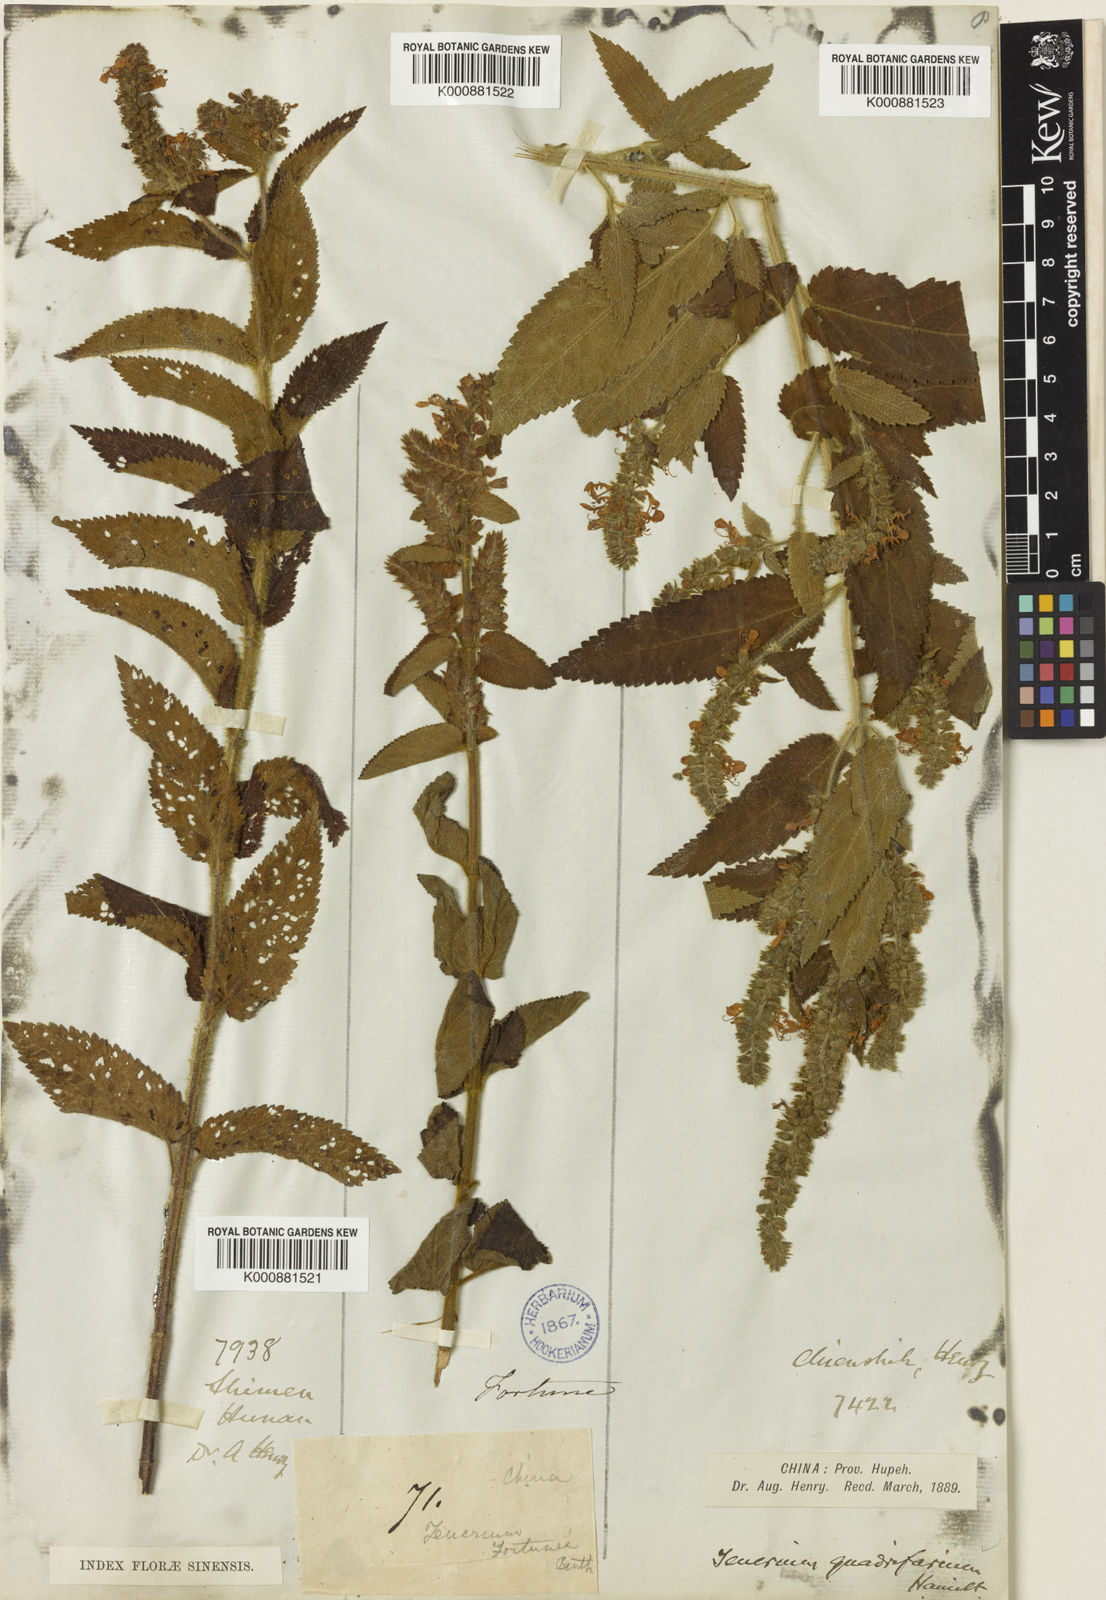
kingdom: Plantae
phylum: Tracheophyta
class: Magnoliopsida
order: Lamiales
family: Lamiaceae
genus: Teucrium
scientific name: Teucrium
